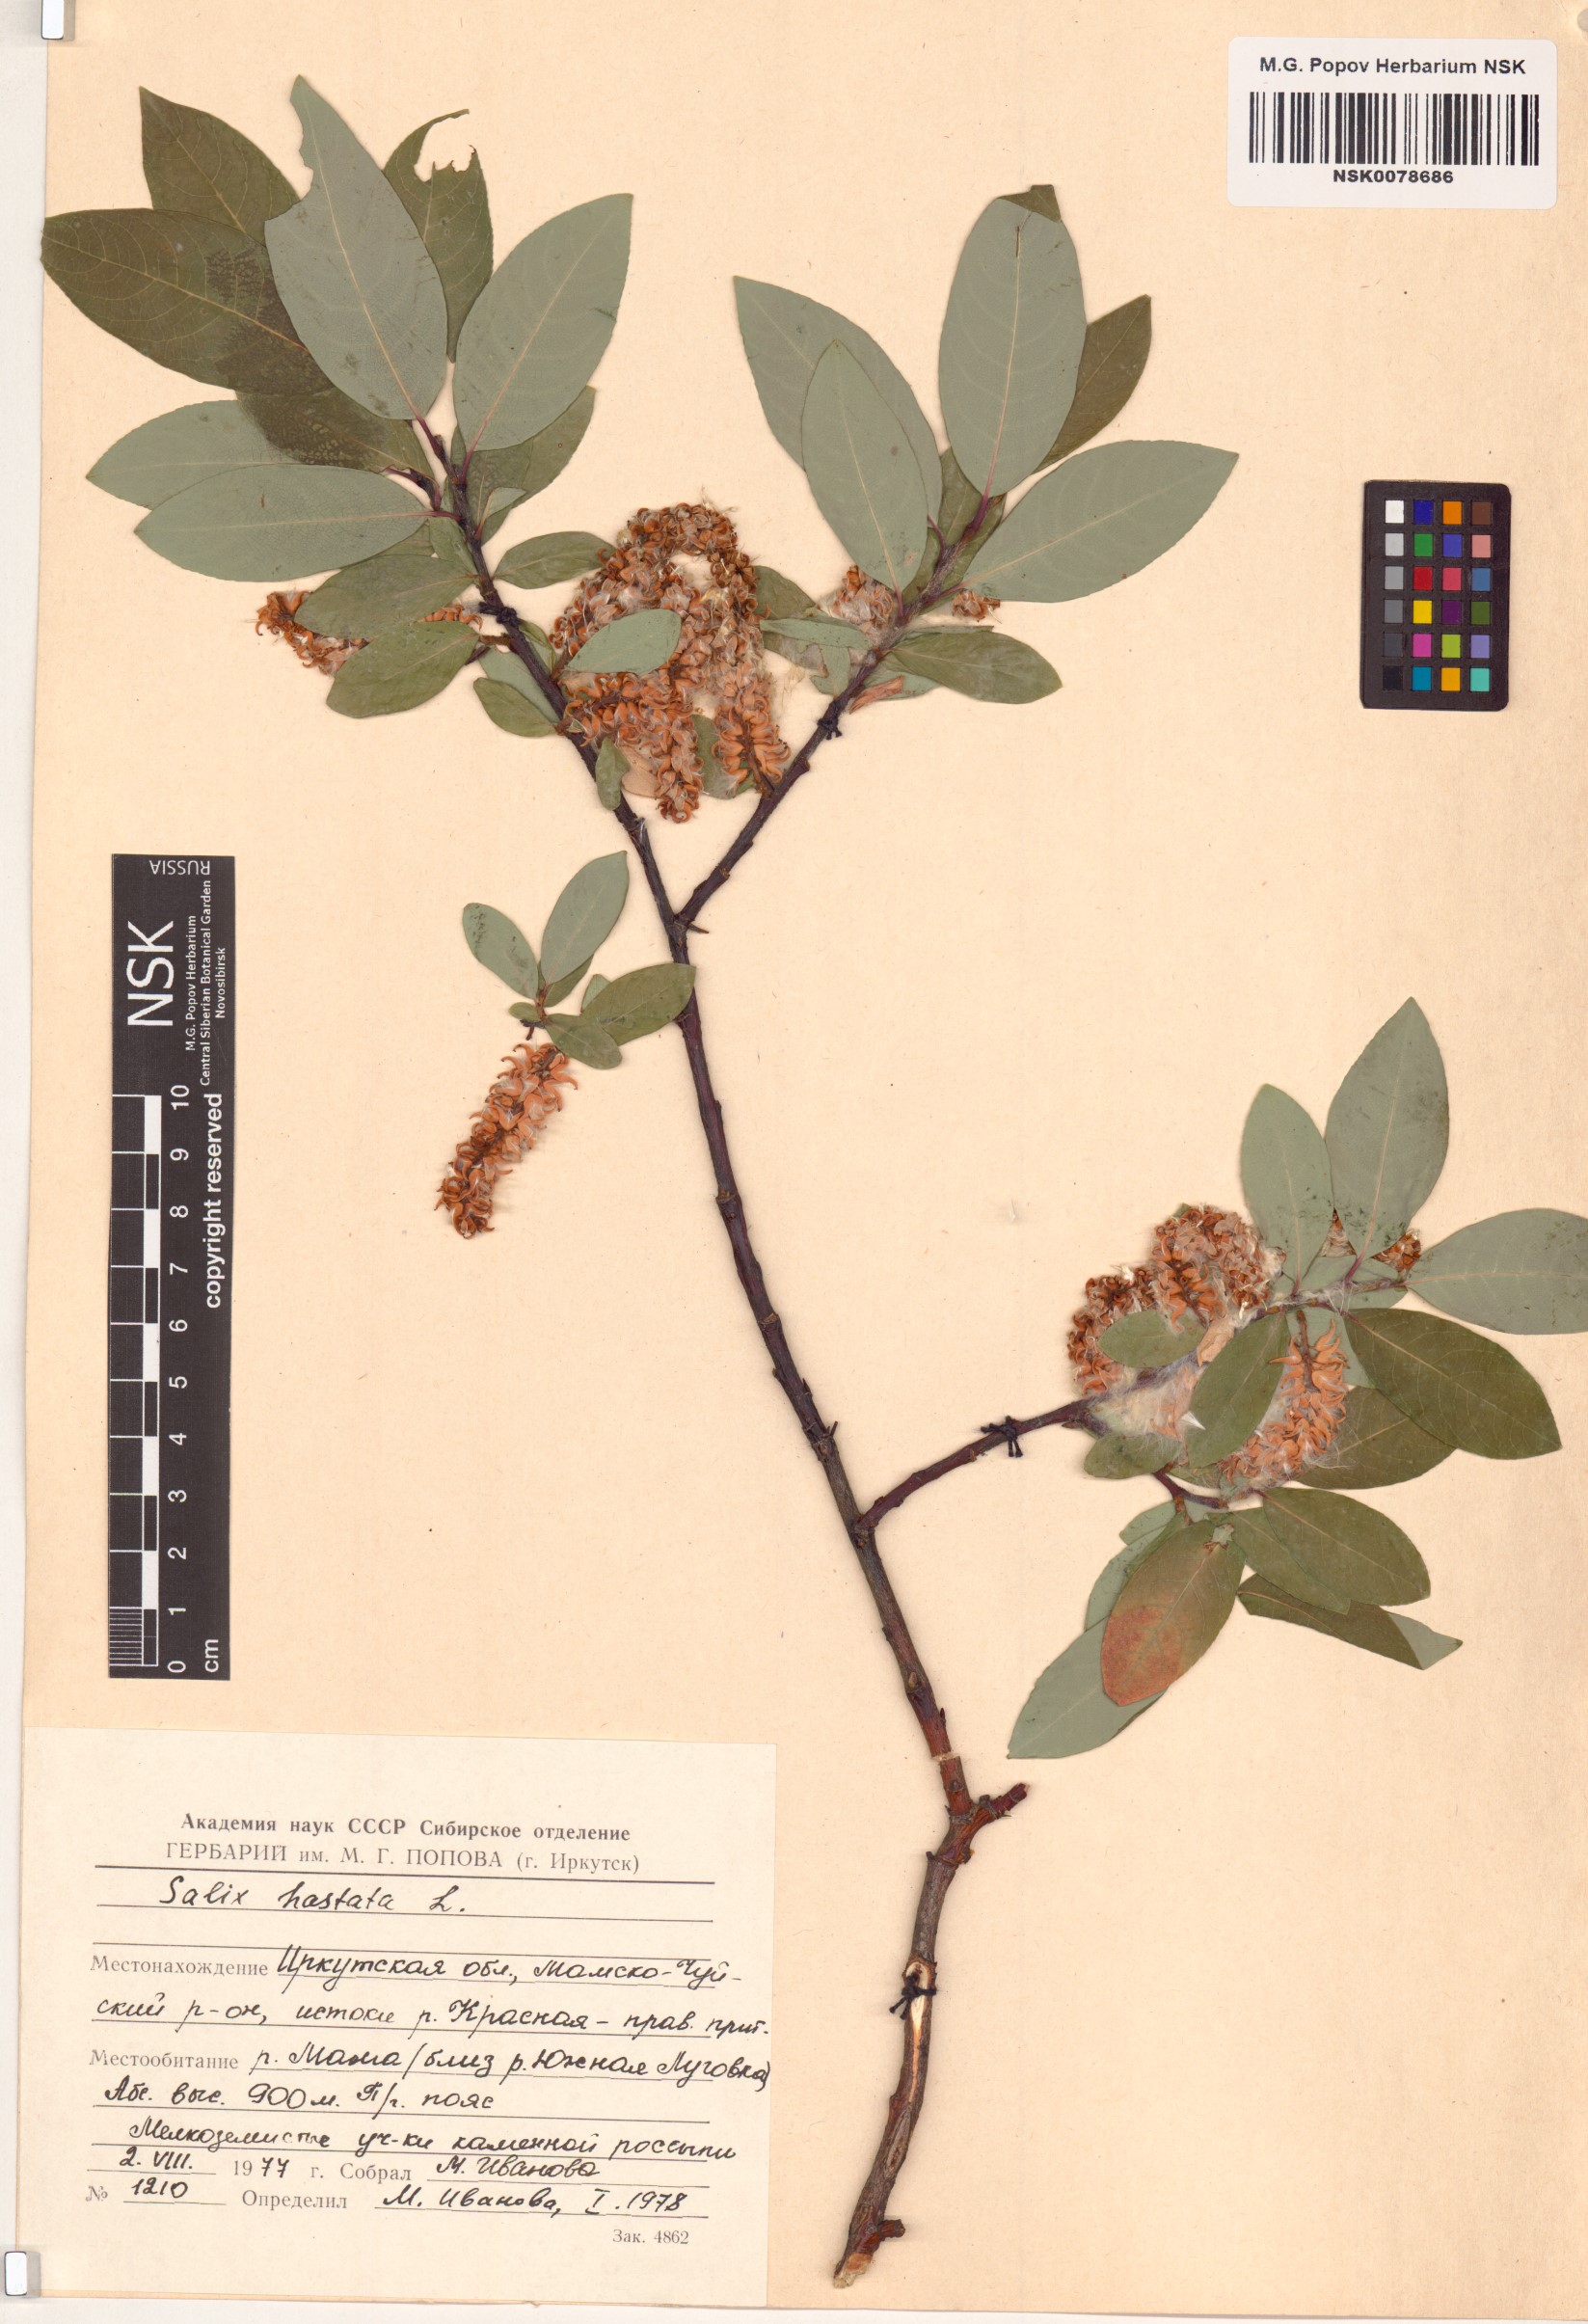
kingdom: Plantae
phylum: Tracheophyta
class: Magnoliopsida
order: Malpighiales
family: Salicaceae
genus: Salix
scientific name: Salix hastata
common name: Halberd willow
